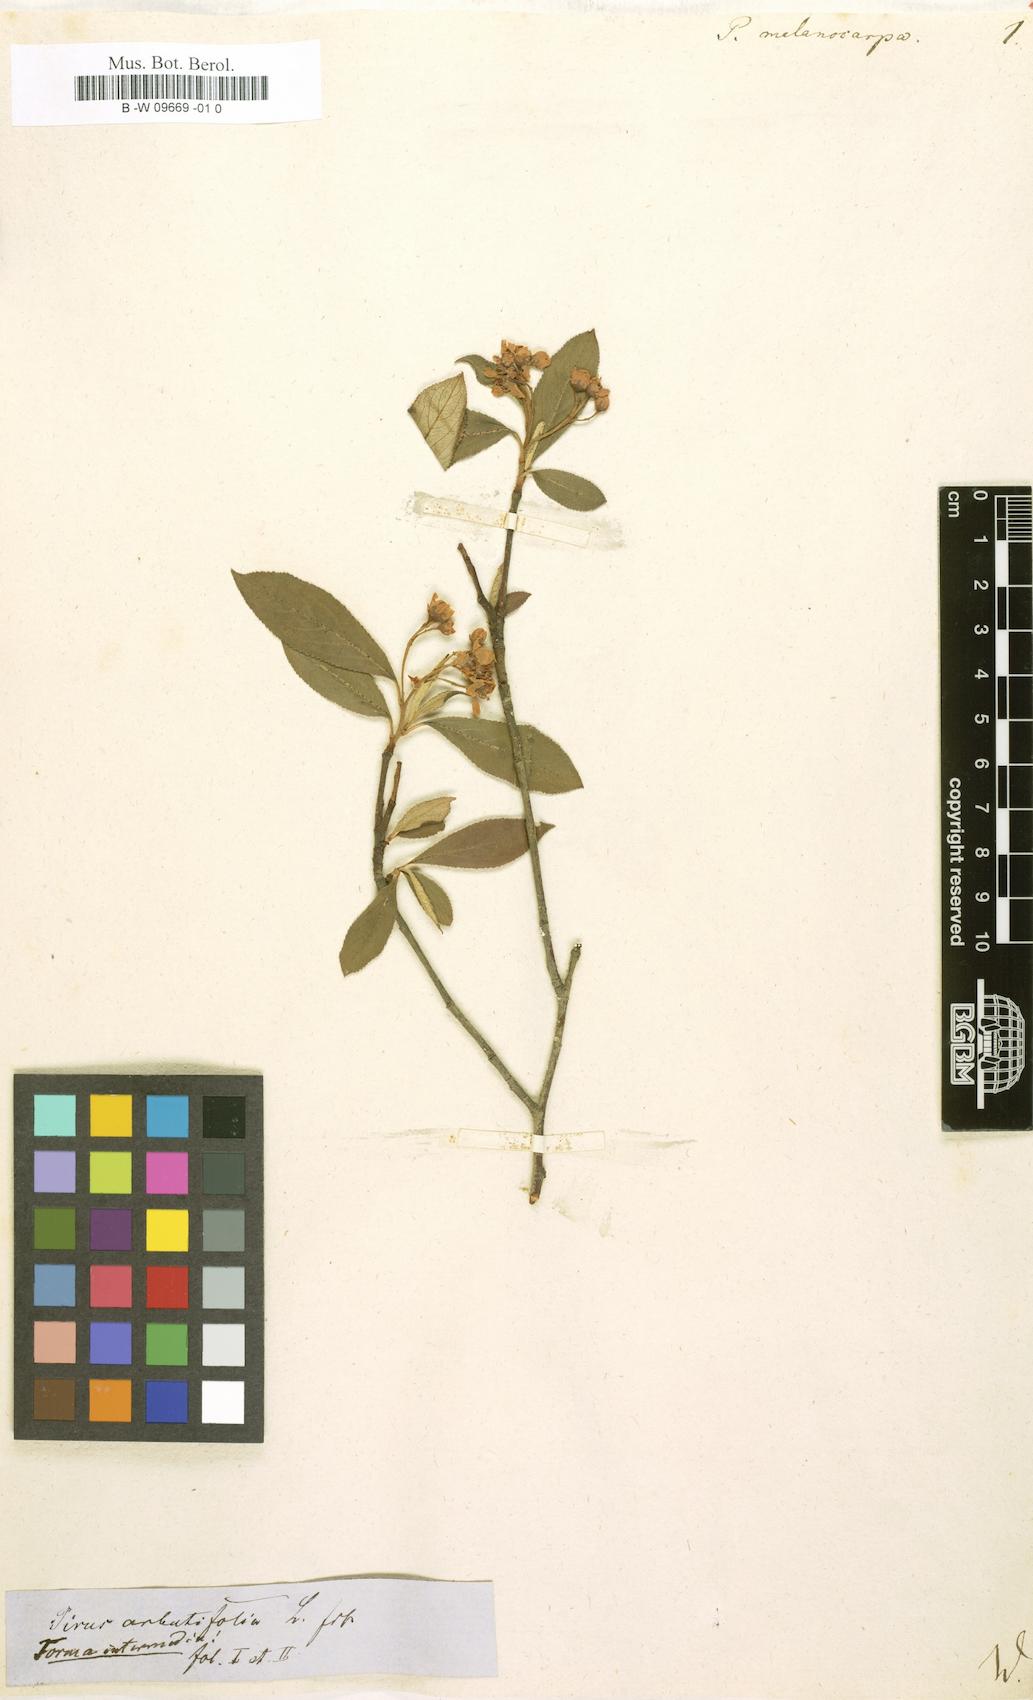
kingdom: Plantae
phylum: Tracheophyta
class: Magnoliopsida
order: Rosales
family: Rosaceae
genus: Aronia
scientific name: Aronia melanocarpa
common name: Black chokeberry
